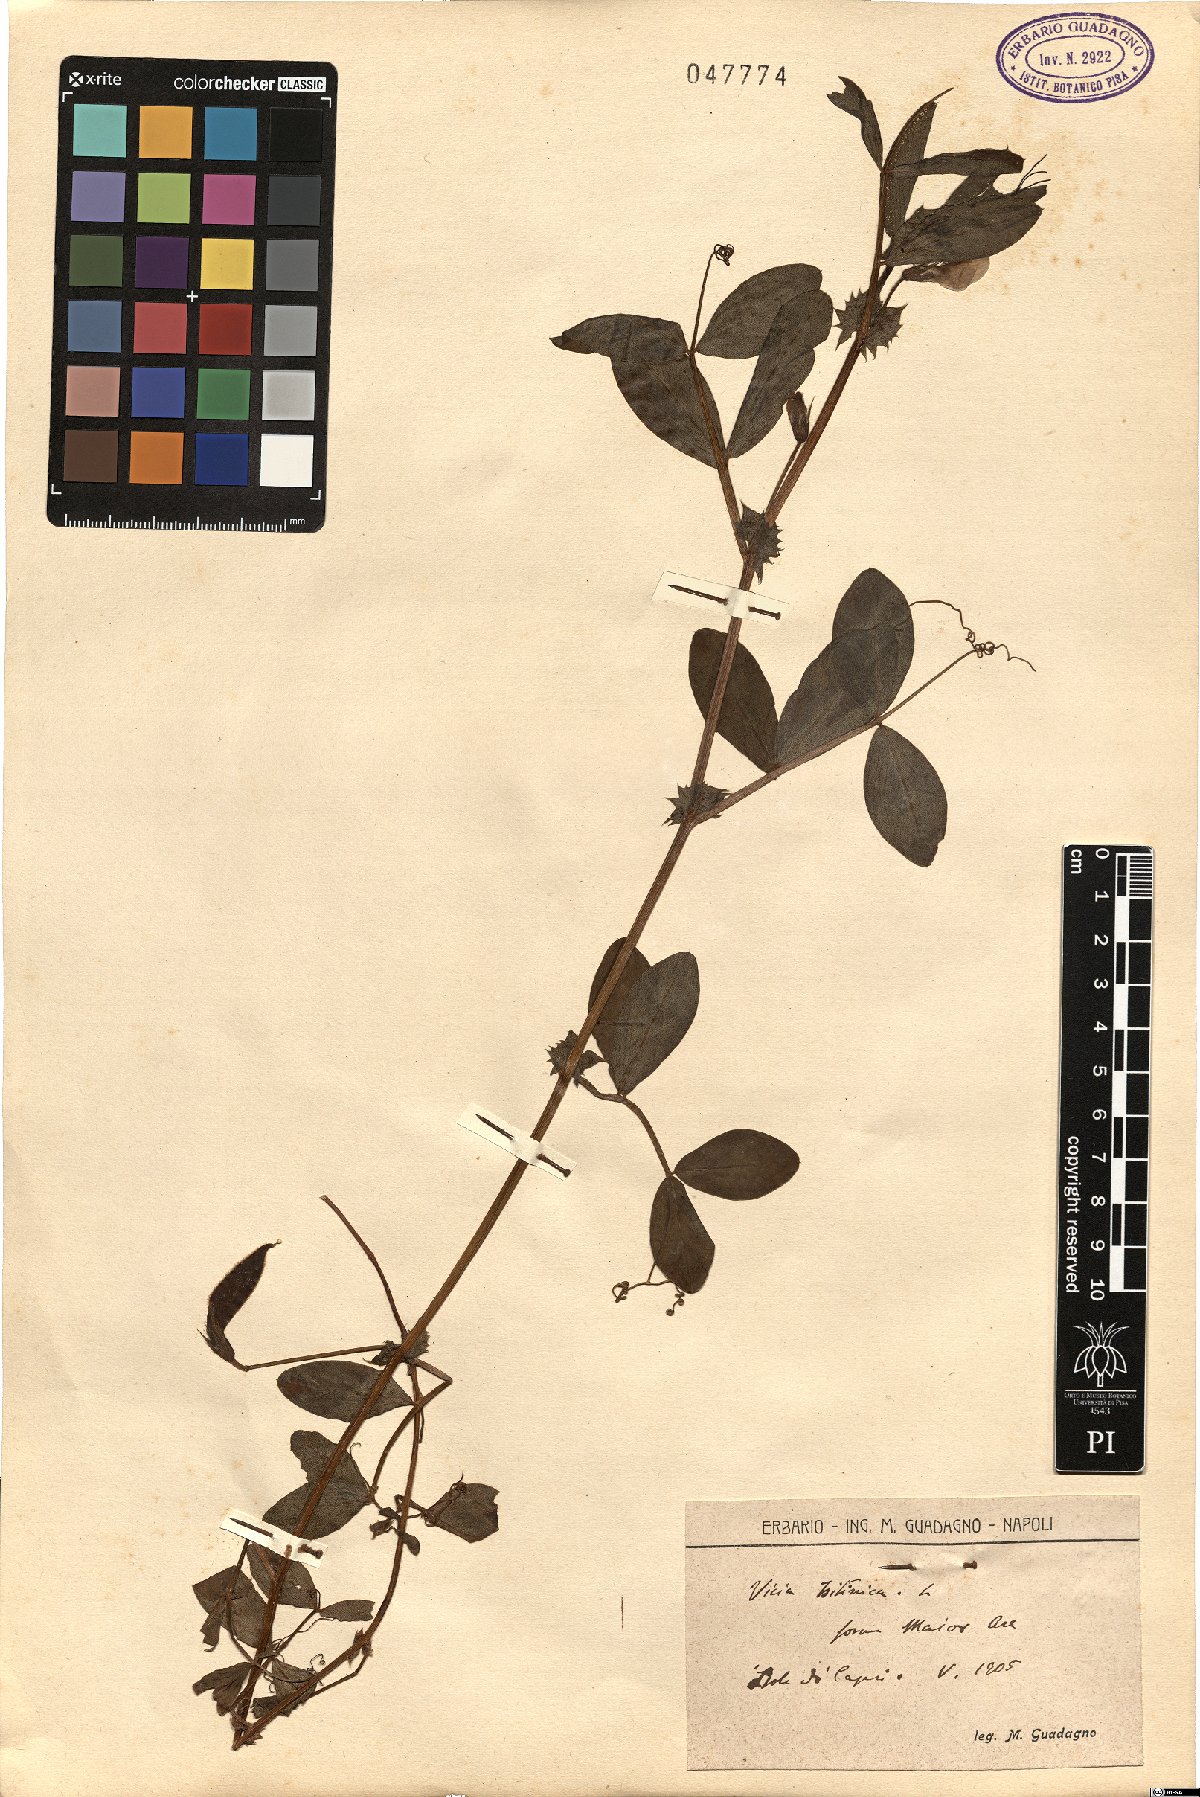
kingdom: Plantae
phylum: Tracheophyta
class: Magnoliopsida
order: Fabales
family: Fabaceae
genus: Vicia
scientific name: Vicia bithynica
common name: Bithynian vetch
